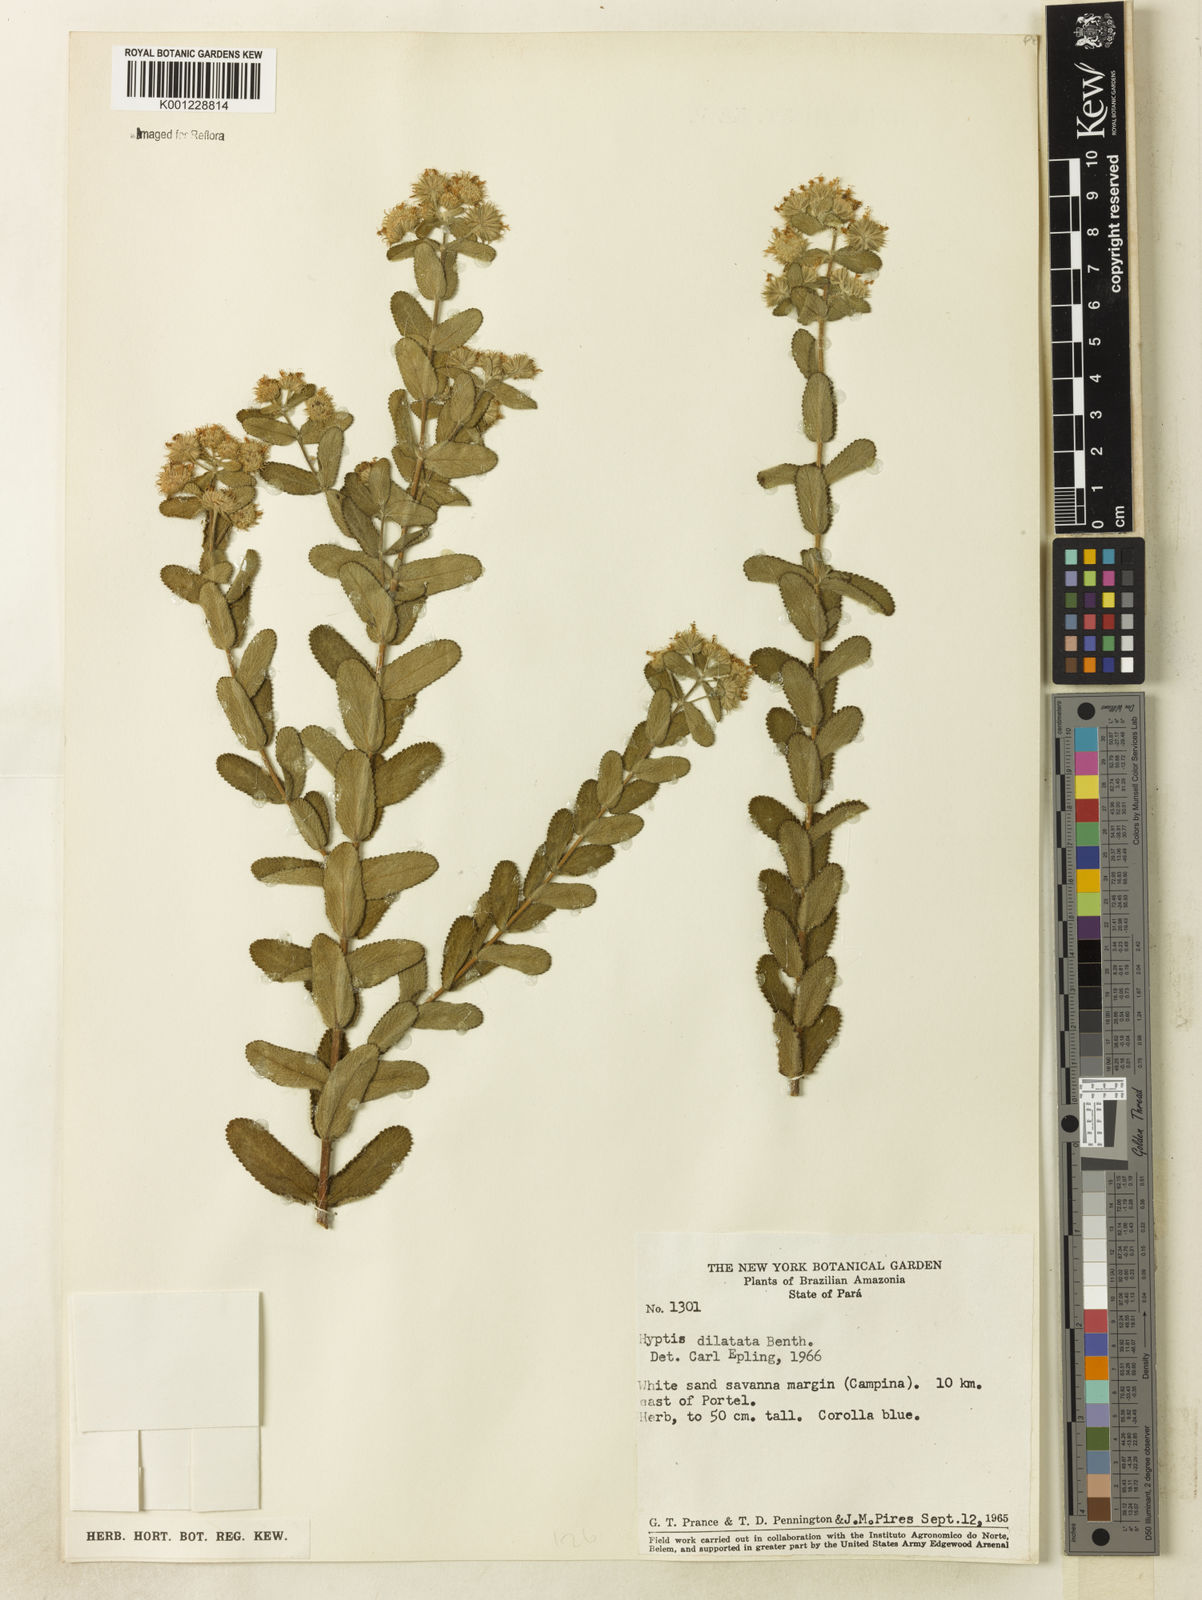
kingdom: Plantae
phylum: Tracheophyta
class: Magnoliopsida
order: Lamiales
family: Lamiaceae
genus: Hyptis
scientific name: Hyptis dilatata
